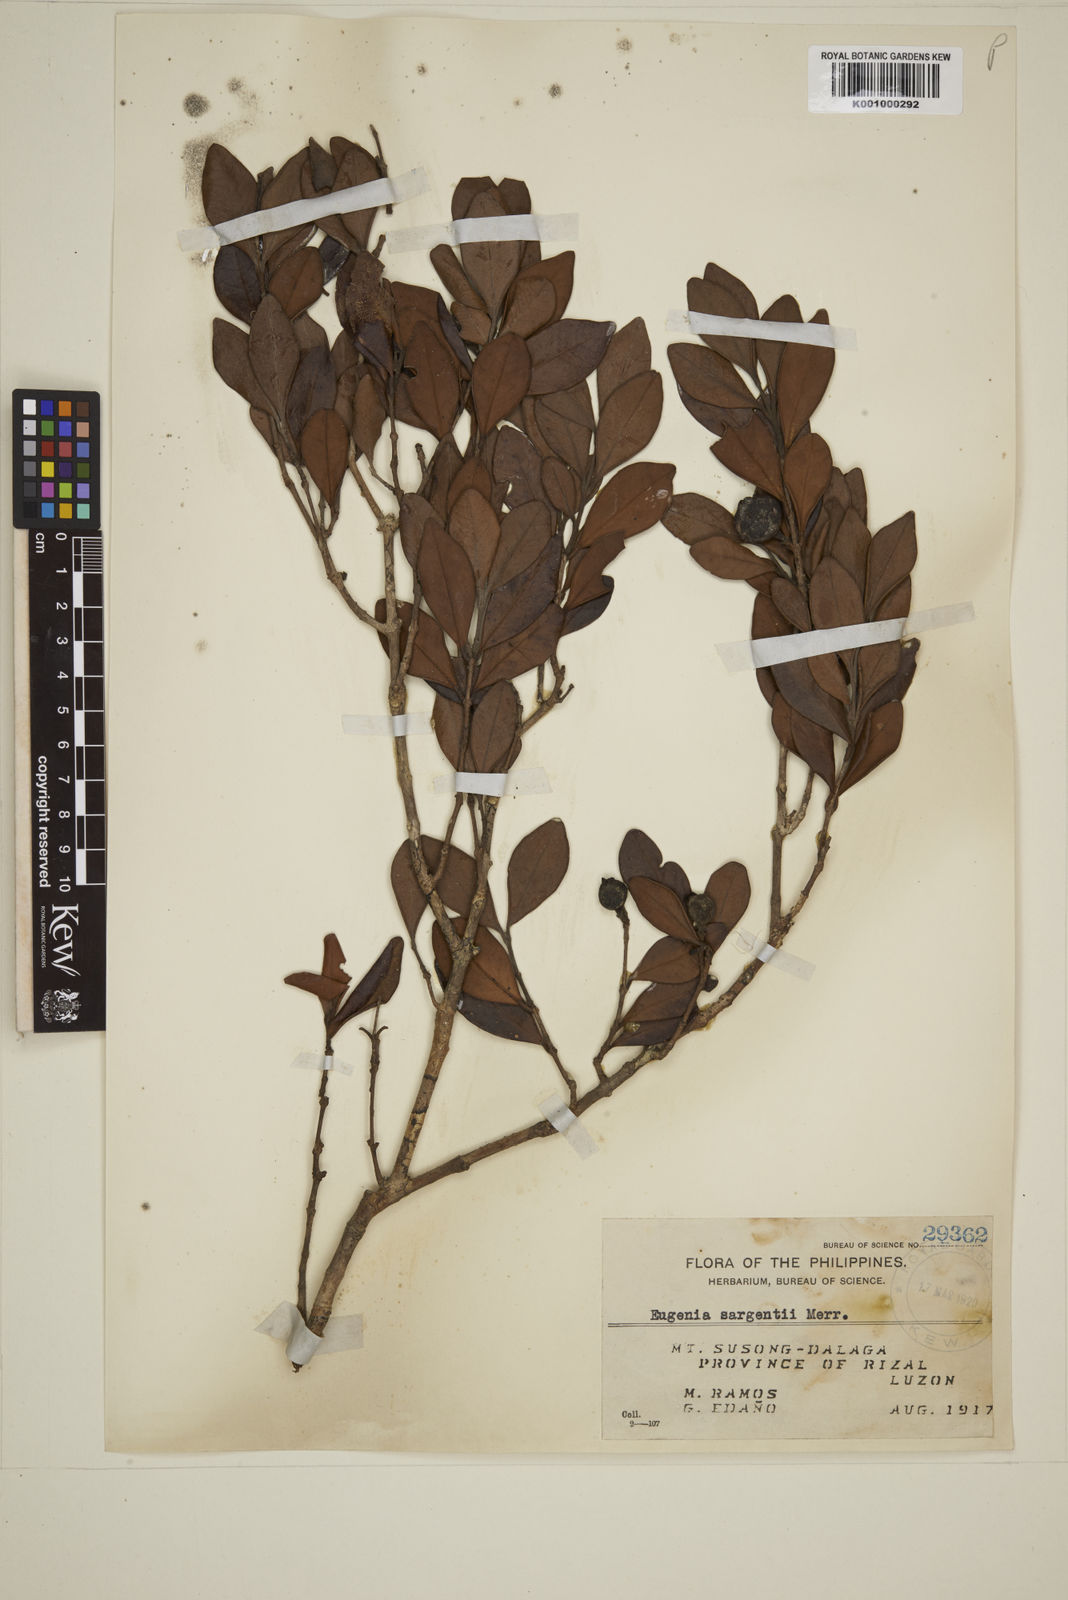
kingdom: Plantae
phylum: Tracheophyta
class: Magnoliopsida
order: Myrtales
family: Myrtaceae
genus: Eugenia
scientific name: Eugenia sargentii
